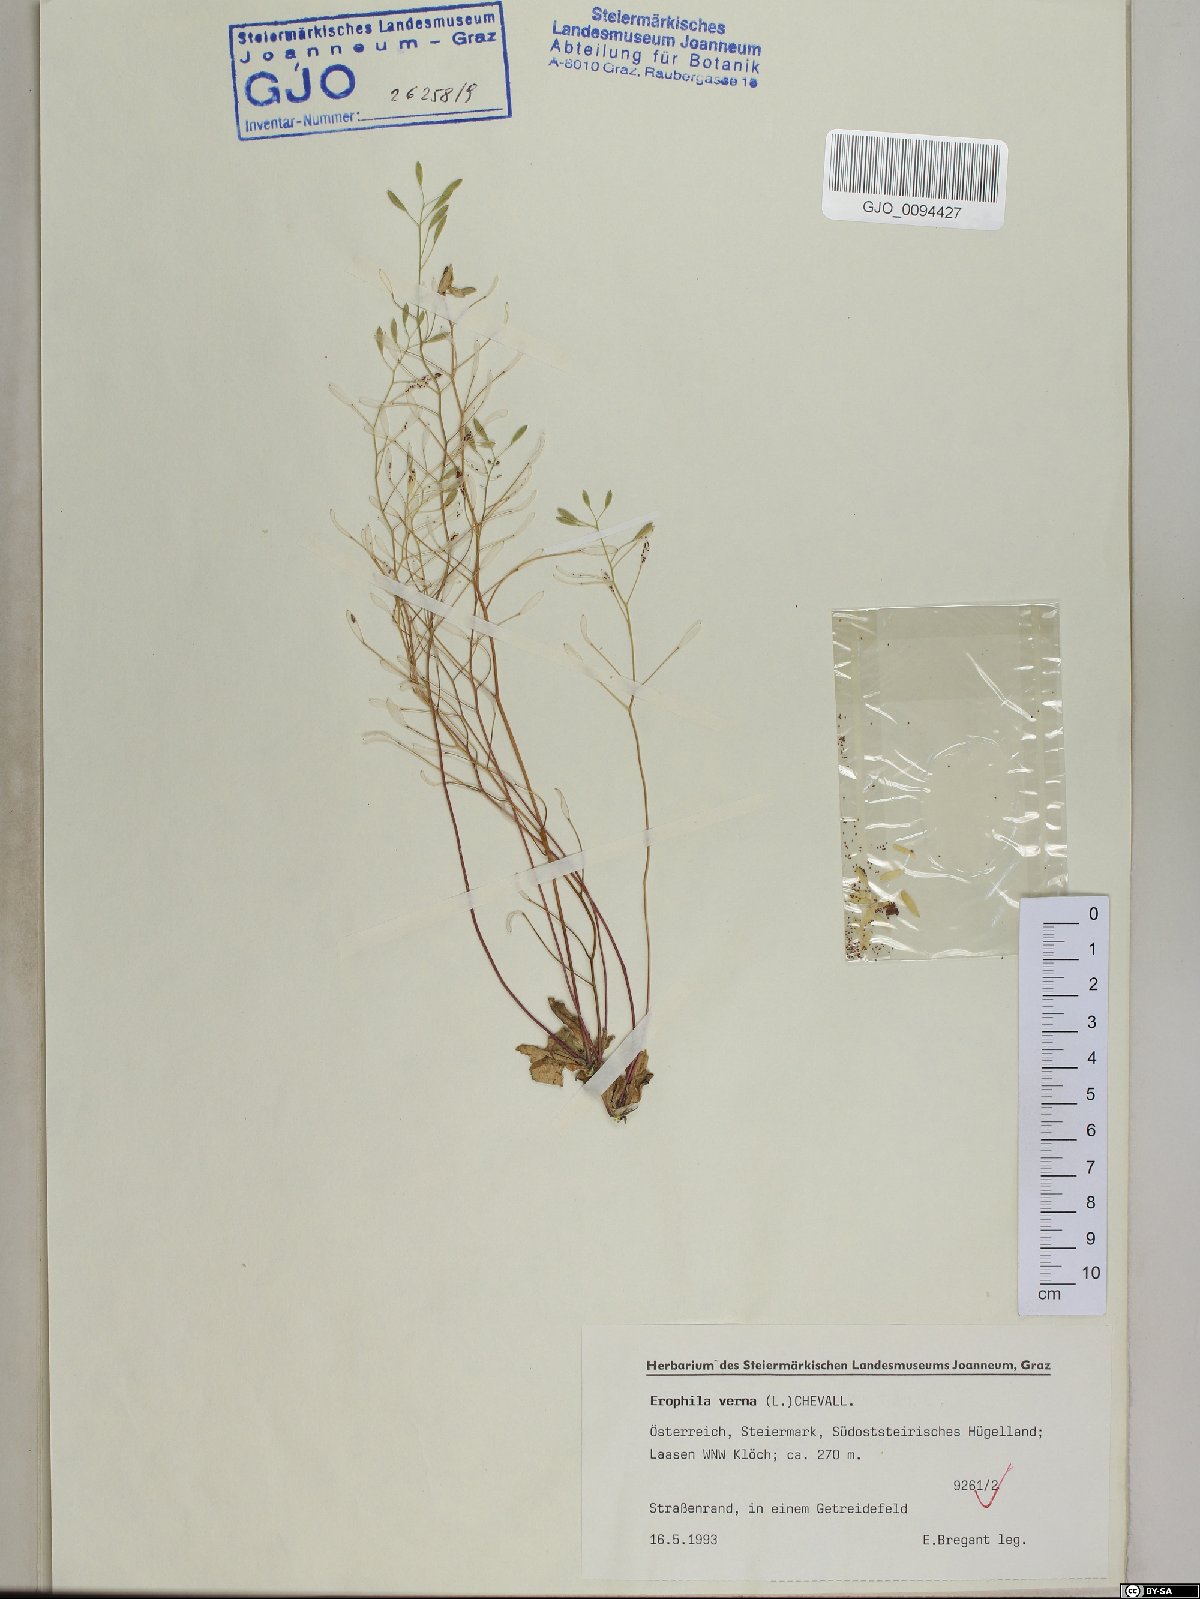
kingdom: Plantae
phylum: Tracheophyta
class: Magnoliopsida
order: Brassicales
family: Brassicaceae
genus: Draba
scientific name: Draba verna
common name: Spring draba
